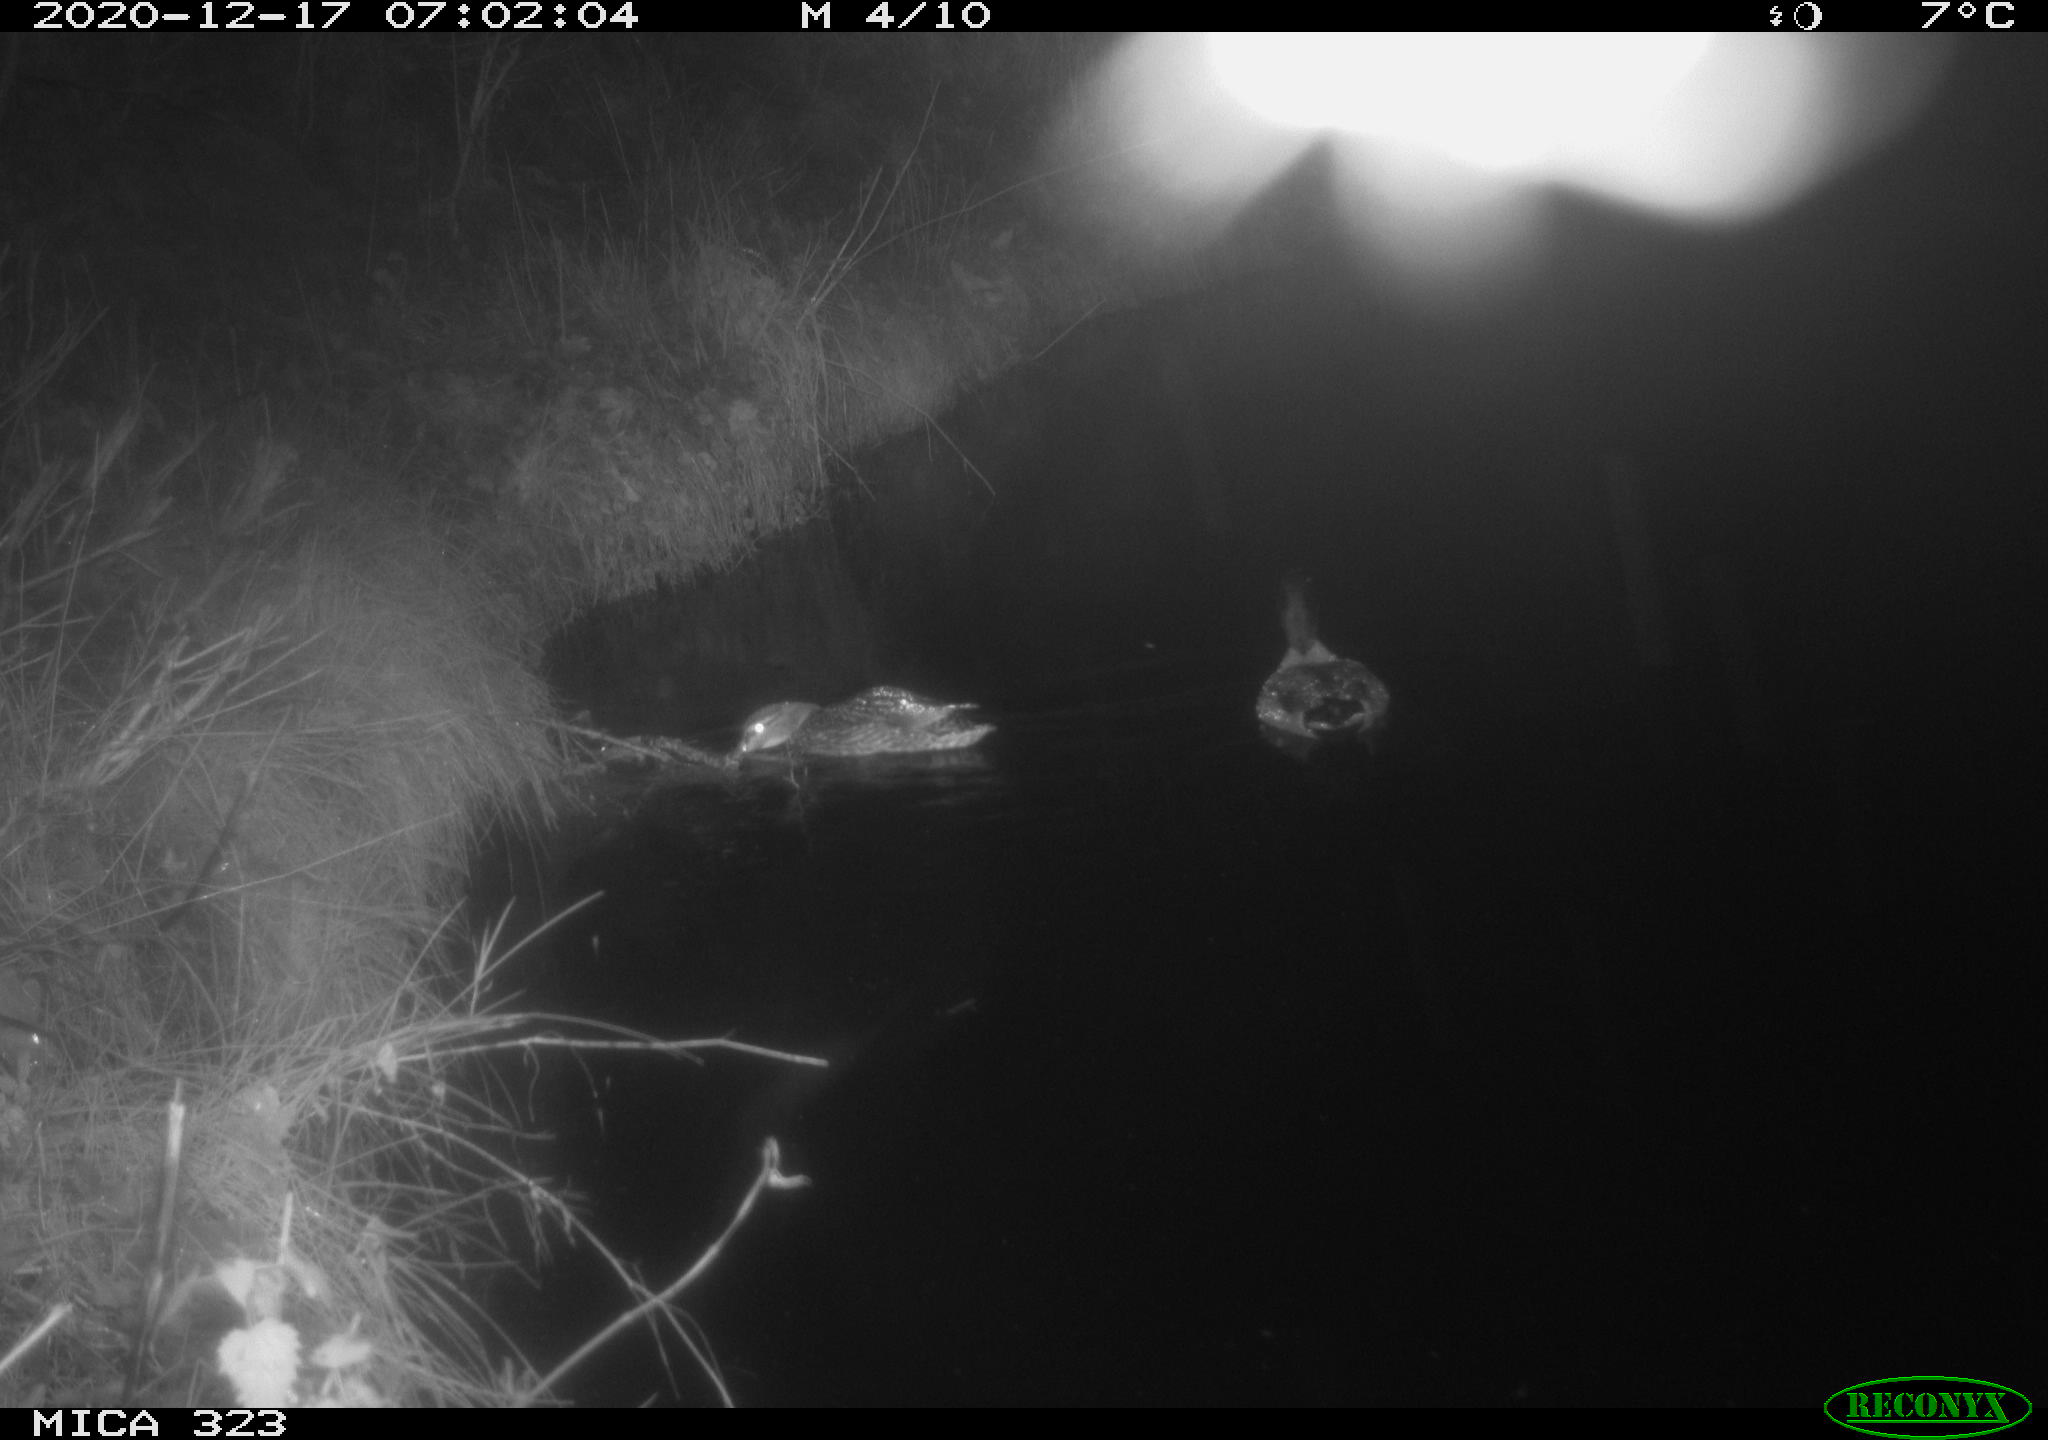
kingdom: Animalia
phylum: Chordata
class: Aves
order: Anseriformes
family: Anatidae
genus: Anas
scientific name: Anas platyrhynchos
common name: Mallard
